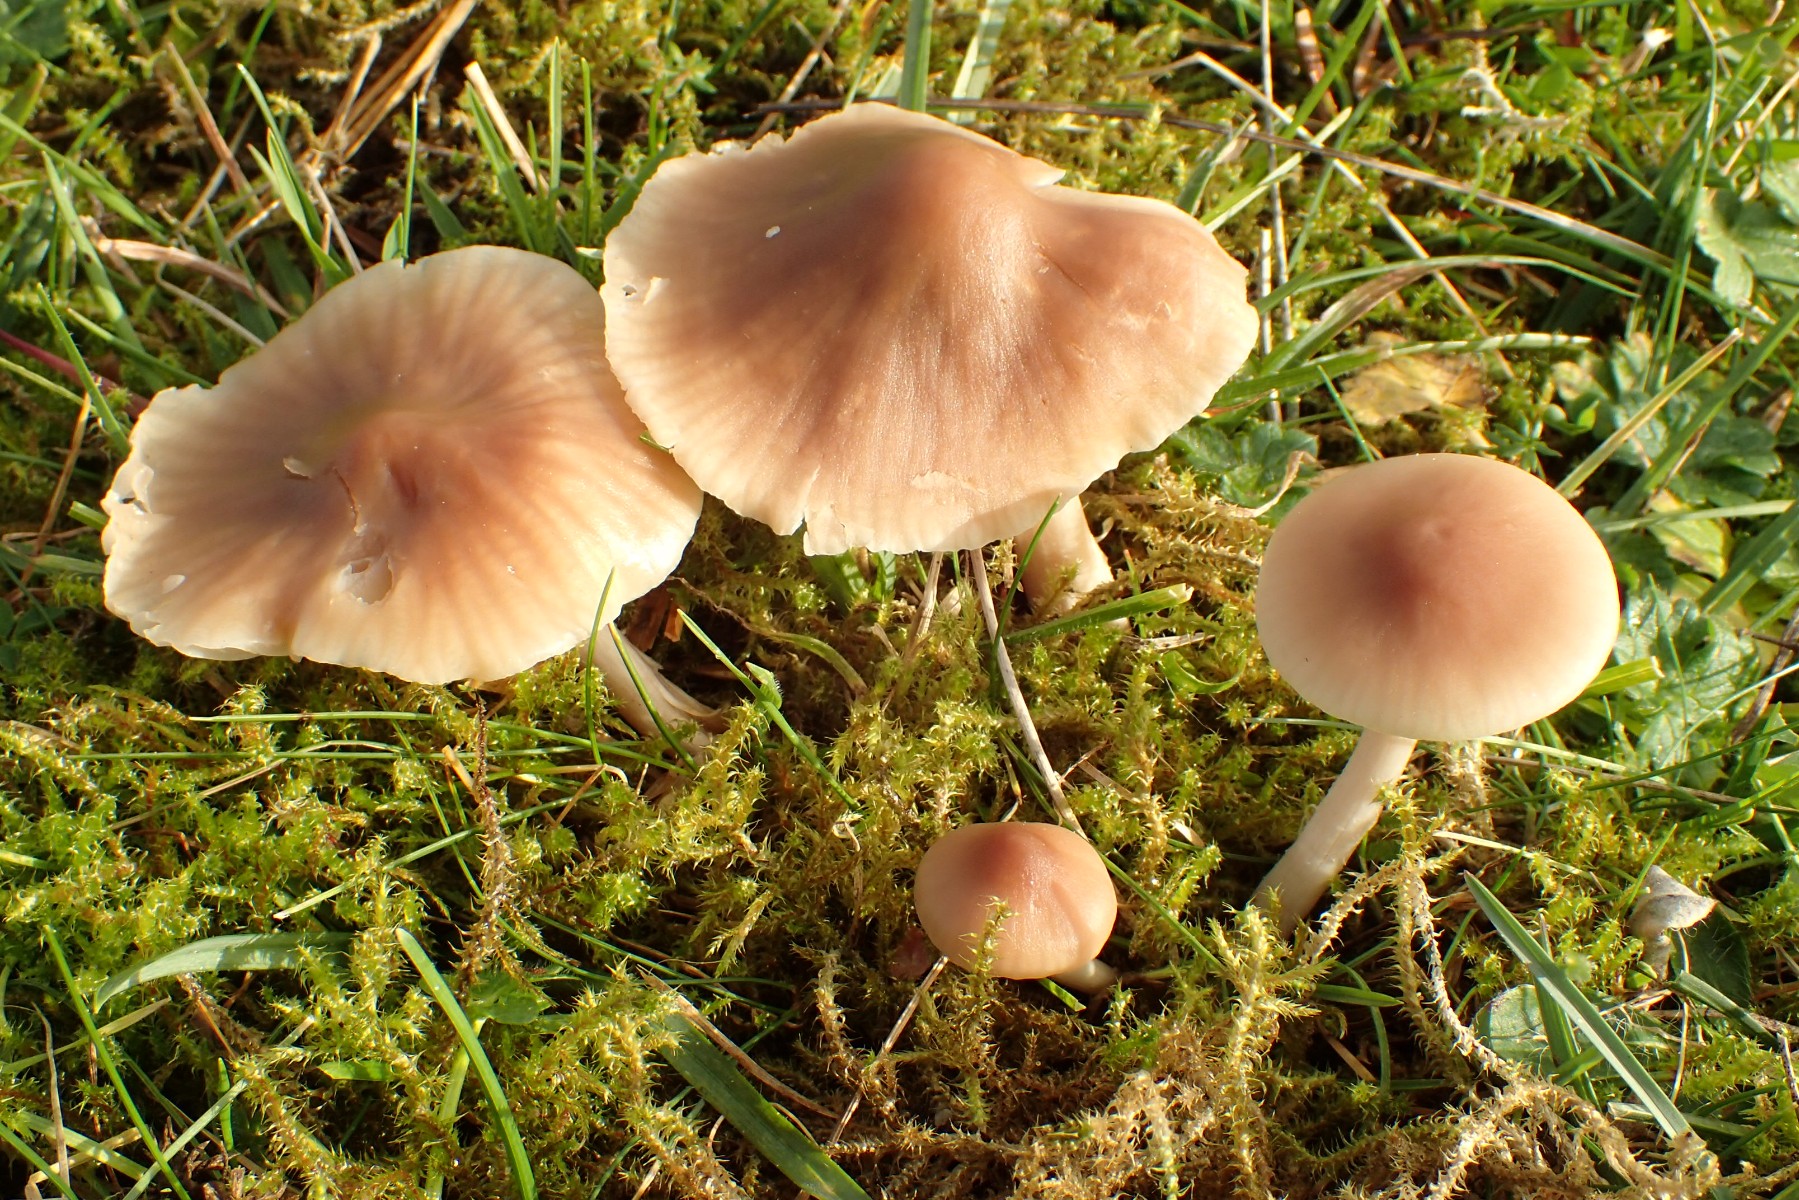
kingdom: Fungi
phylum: Basidiomycota
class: Agaricomycetes
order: Agaricales
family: Hygrophoraceae
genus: Cuphophyllus
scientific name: Cuphophyllus colemannianus
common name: rødbrun vokshat
